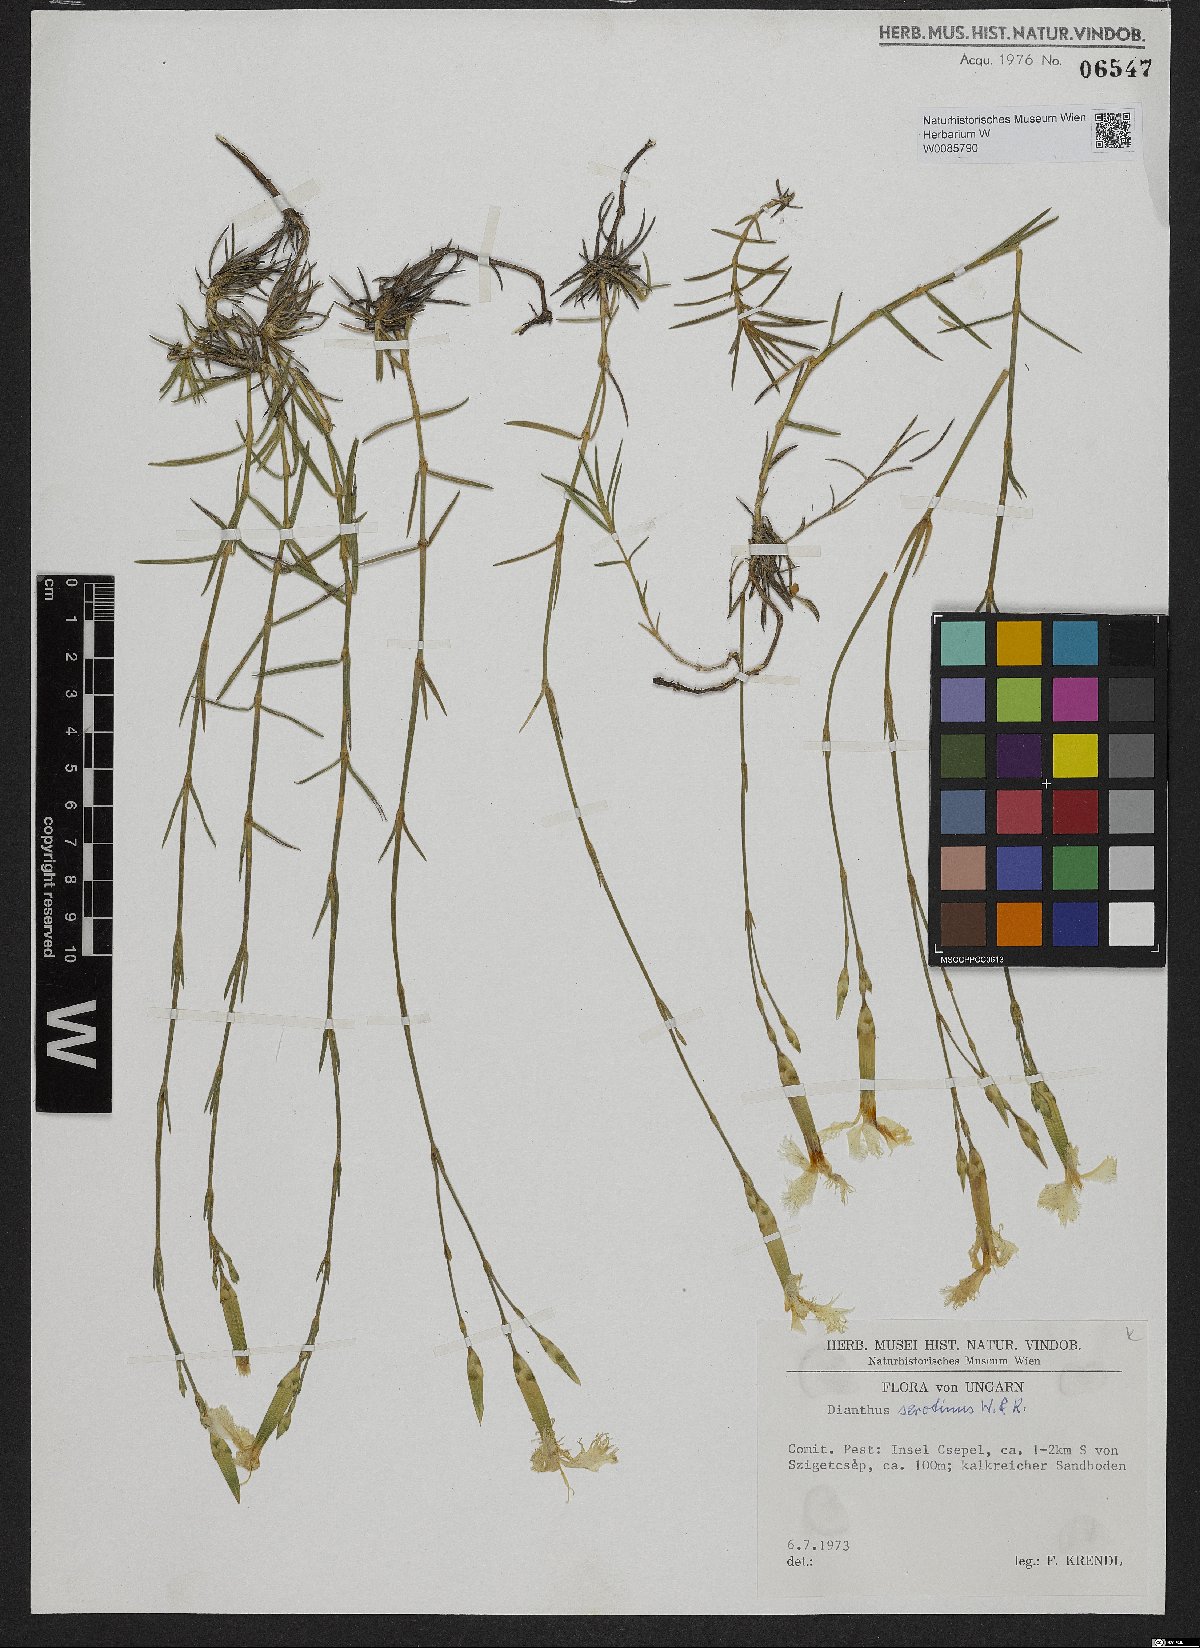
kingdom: Plantae
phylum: Tracheophyta
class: Magnoliopsida
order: Caryophyllales
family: Caryophyllaceae
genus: Dianthus
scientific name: Dianthus serotinus
